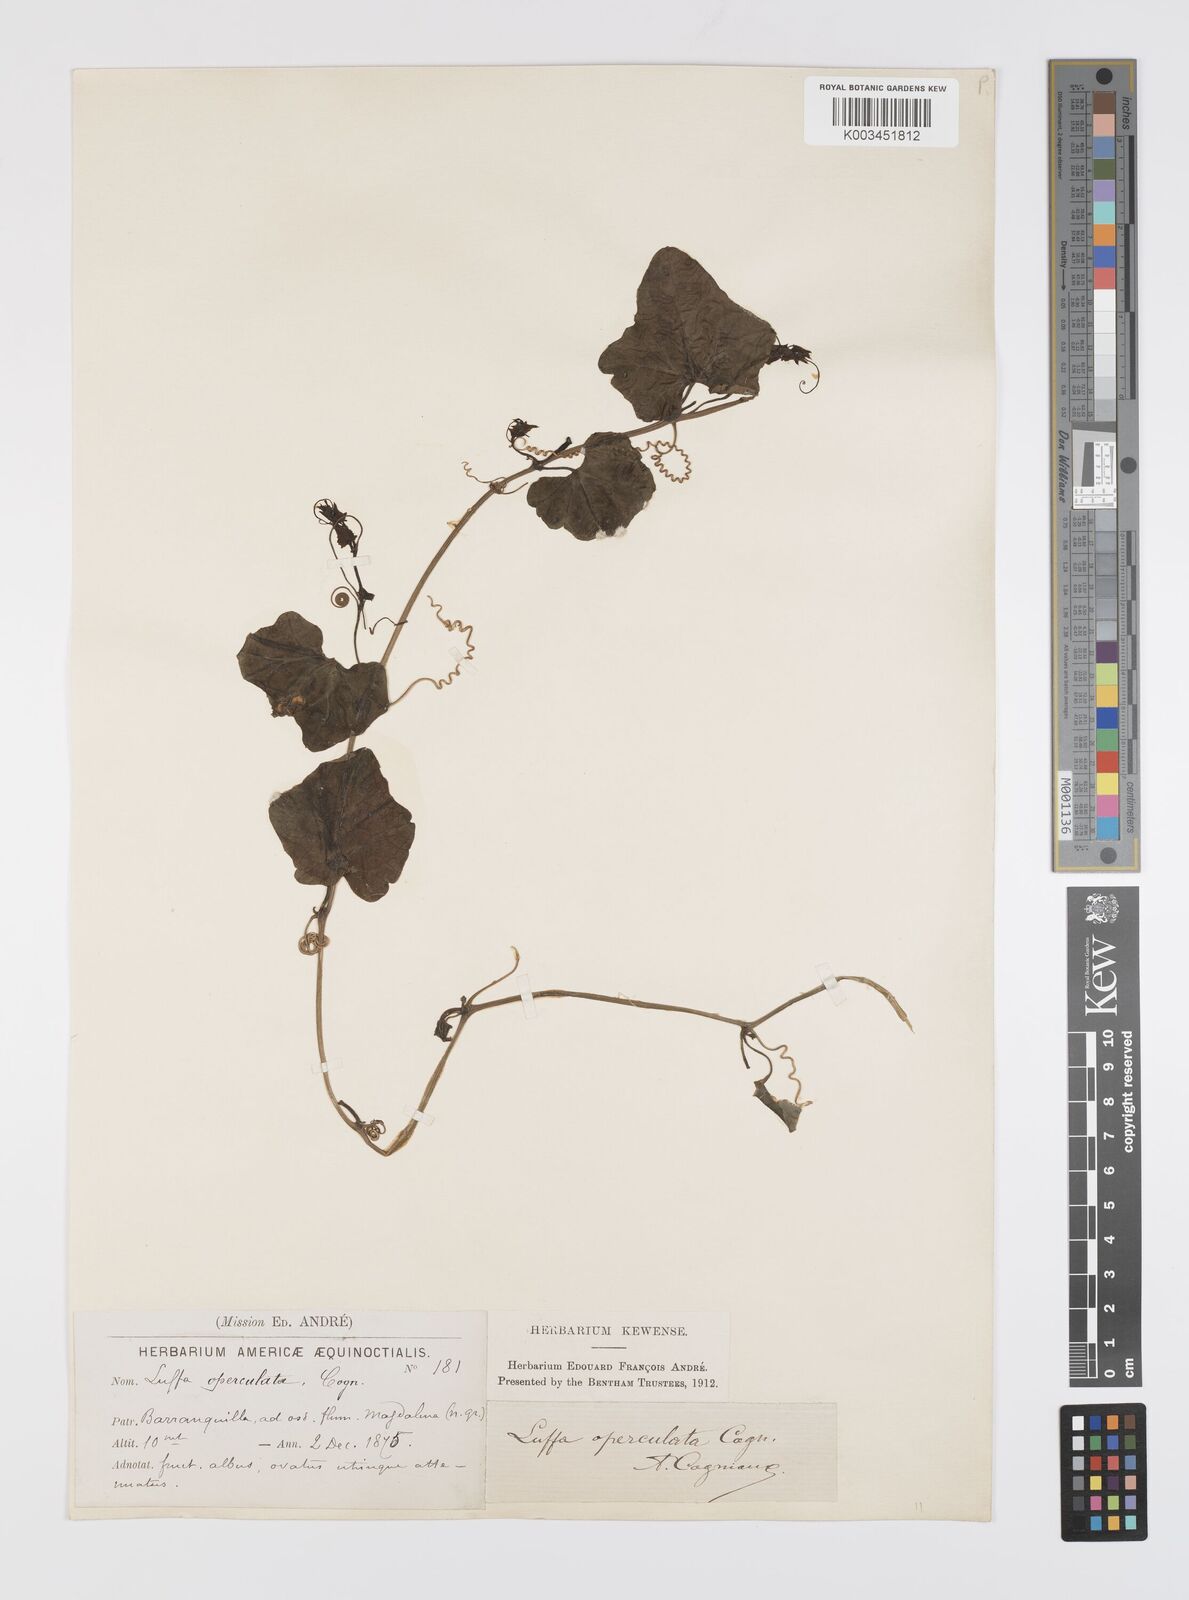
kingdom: Plantae
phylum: Tracheophyta
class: Magnoliopsida
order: Cucurbitales
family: Cucurbitaceae
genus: Luffa
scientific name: Luffa operculata
